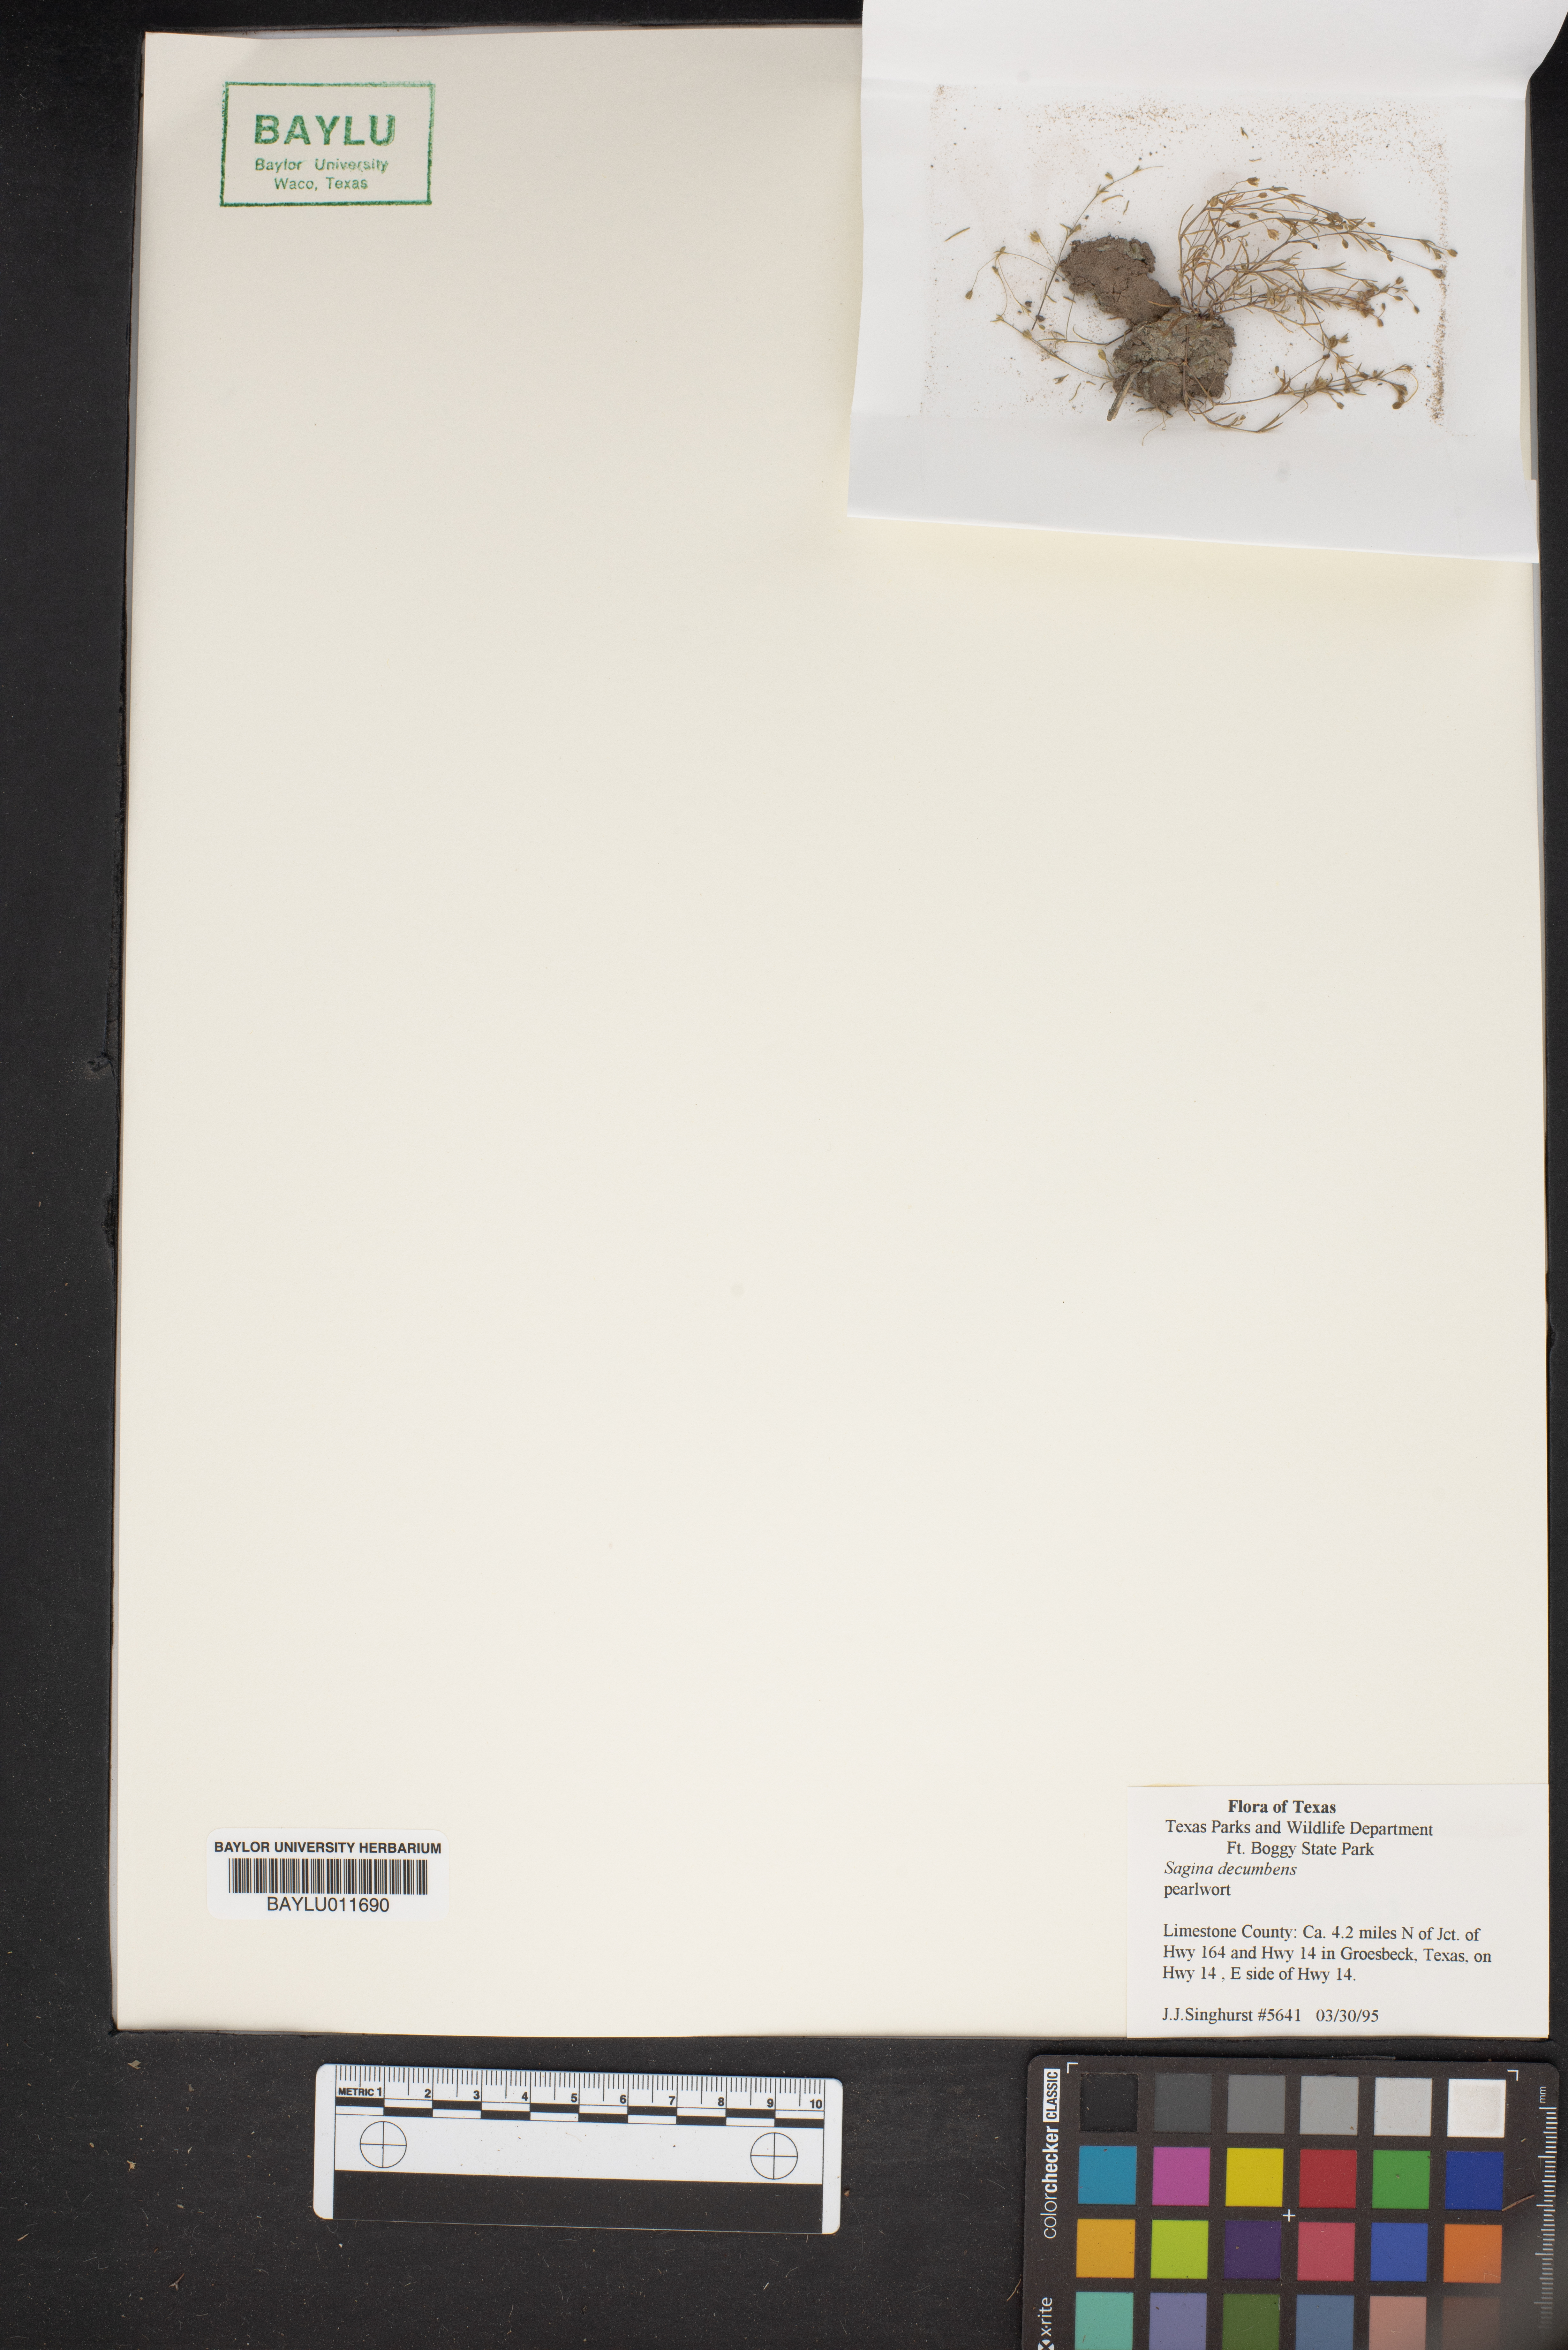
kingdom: Plantae
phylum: Tracheophyta
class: Magnoliopsida
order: Caryophyllales
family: Caryophyllaceae
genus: Sagina
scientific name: Sagina decumbens
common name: Decumbent pearlwort
